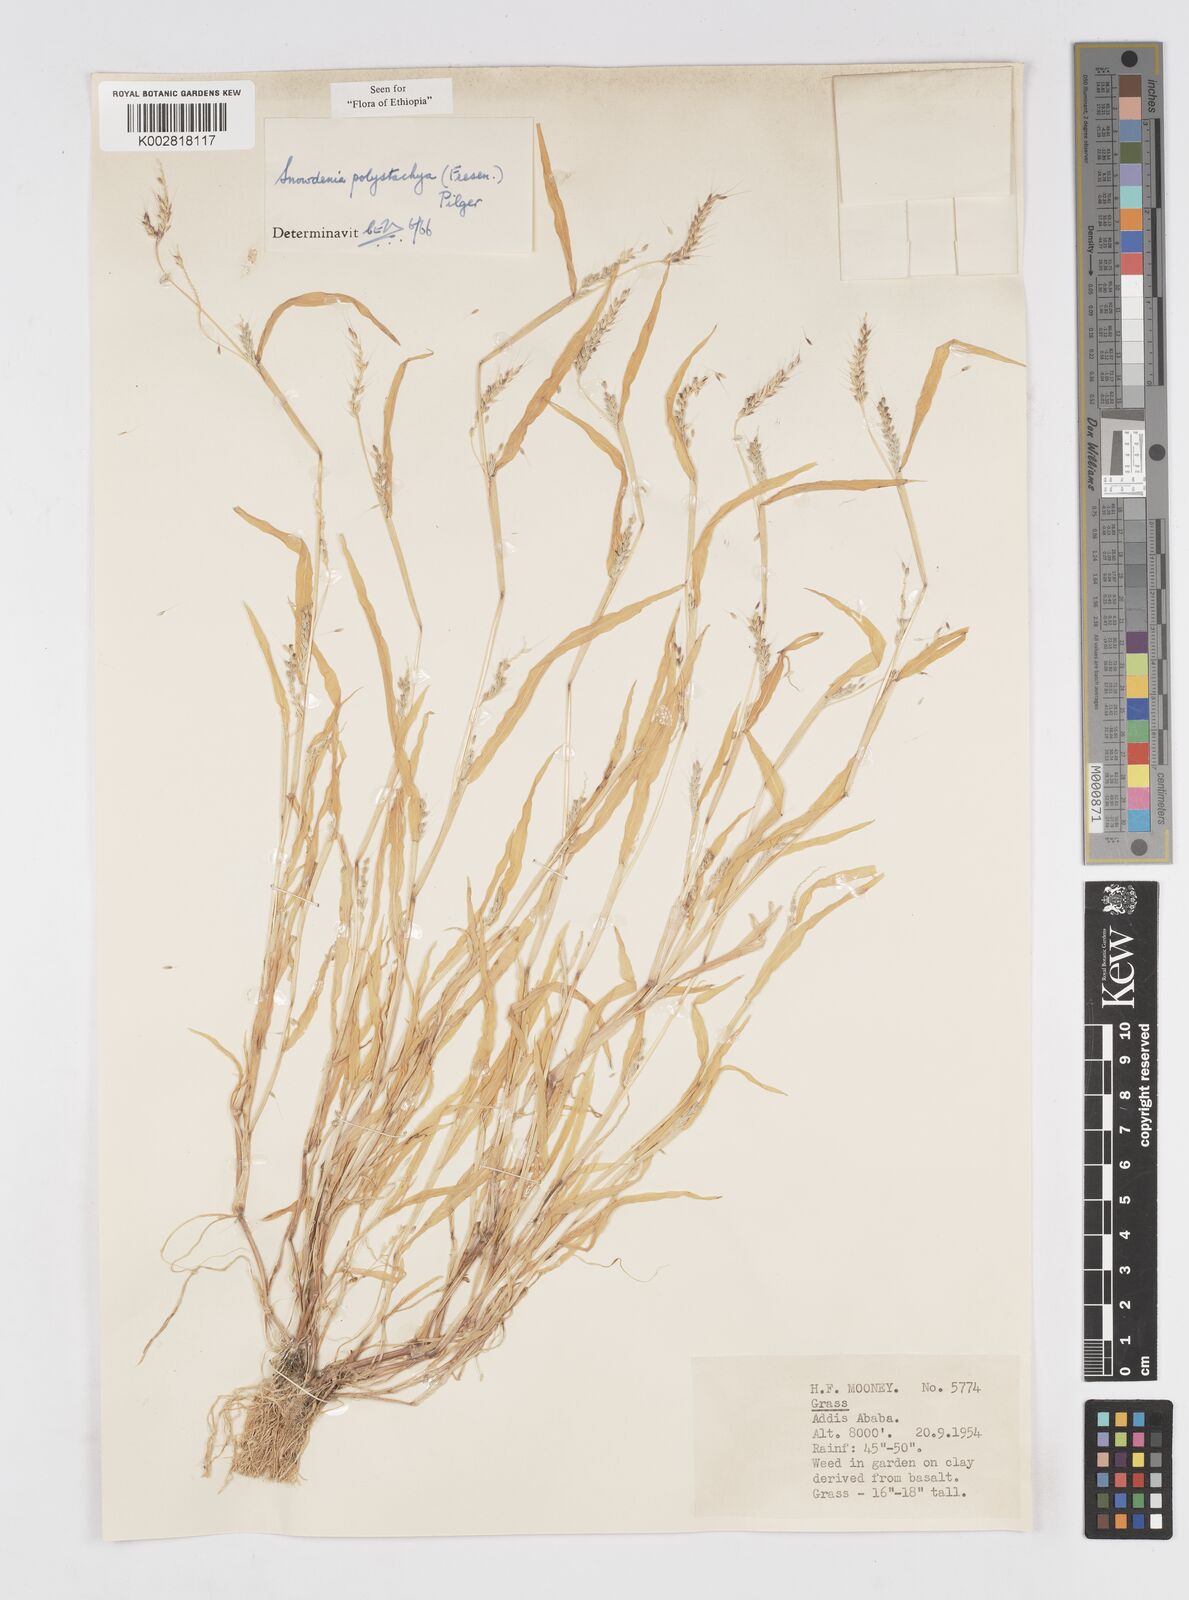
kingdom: Plantae
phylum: Tracheophyta
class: Liliopsida
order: Poales
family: Poaceae
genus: Snowdenia
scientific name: Snowdenia polystachya
